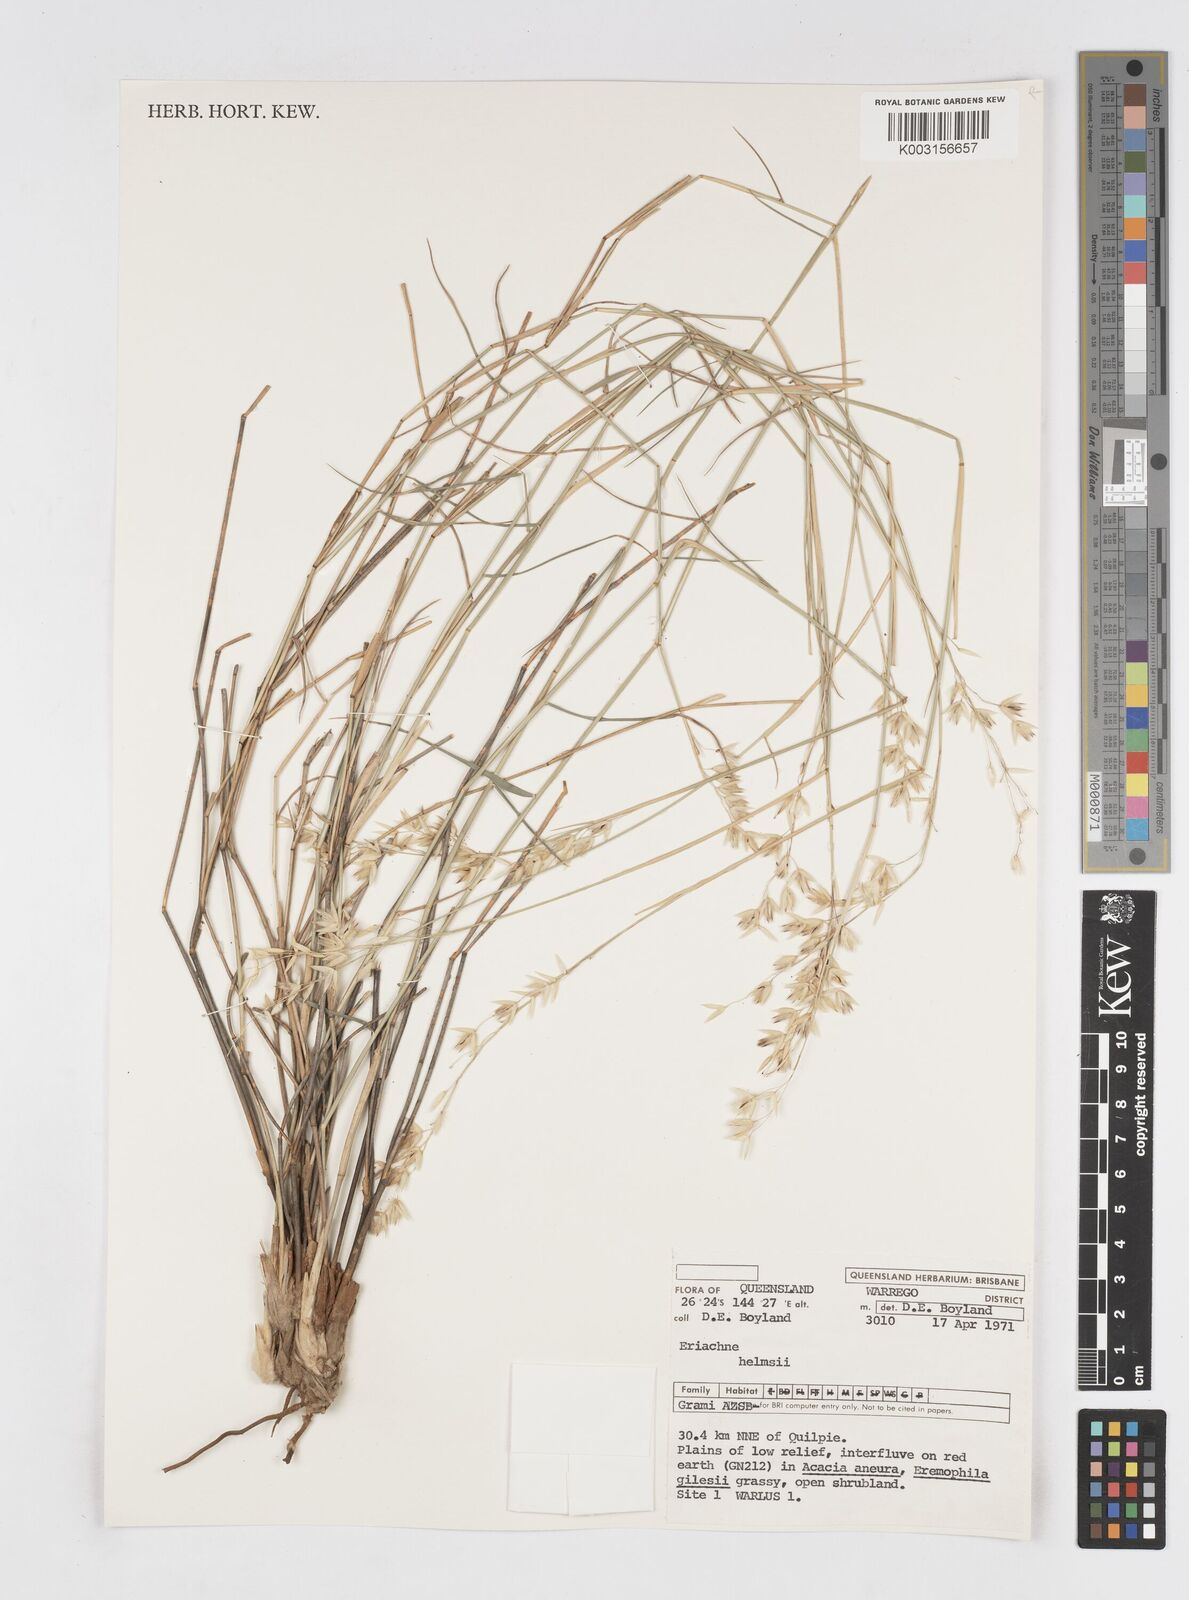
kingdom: Plantae
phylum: Tracheophyta
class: Liliopsida
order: Poales
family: Poaceae
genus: Eriachne
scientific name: Eriachne helmsii
